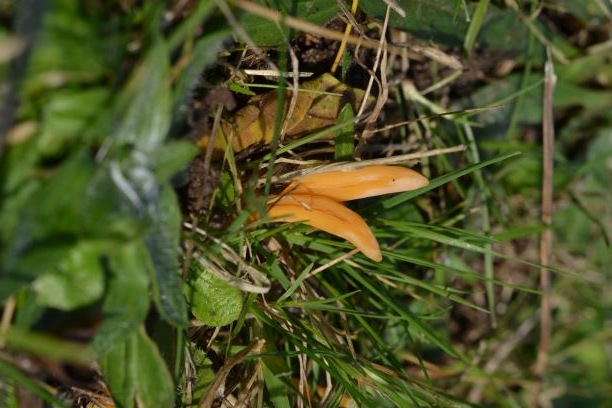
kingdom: Fungi
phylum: Basidiomycota
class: Agaricomycetes
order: Agaricales
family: Clavariaceae
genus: Clavulinopsis
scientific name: Clavulinopsis
